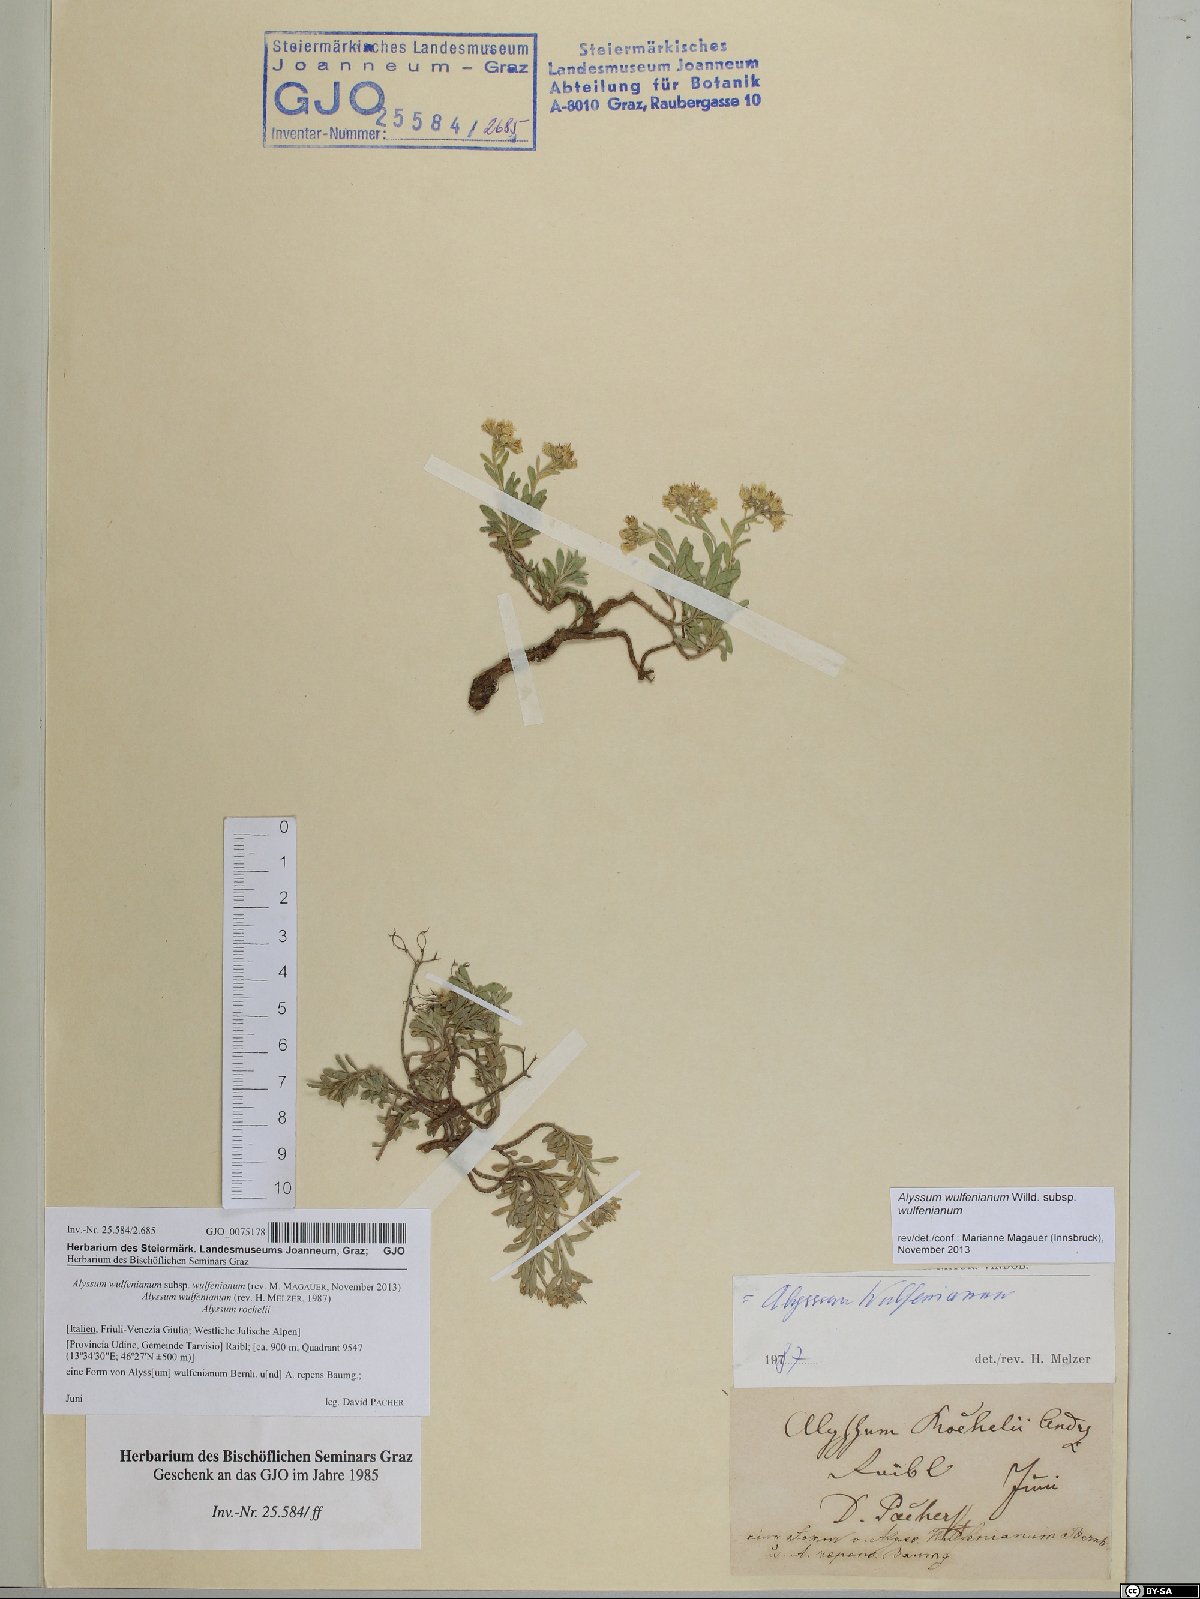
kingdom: Plantae
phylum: Tracheophyta
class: Magnoliopsida
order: Brassicales
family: Brassicaceae
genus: Alyssum
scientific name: Alyssum wulfenianum
